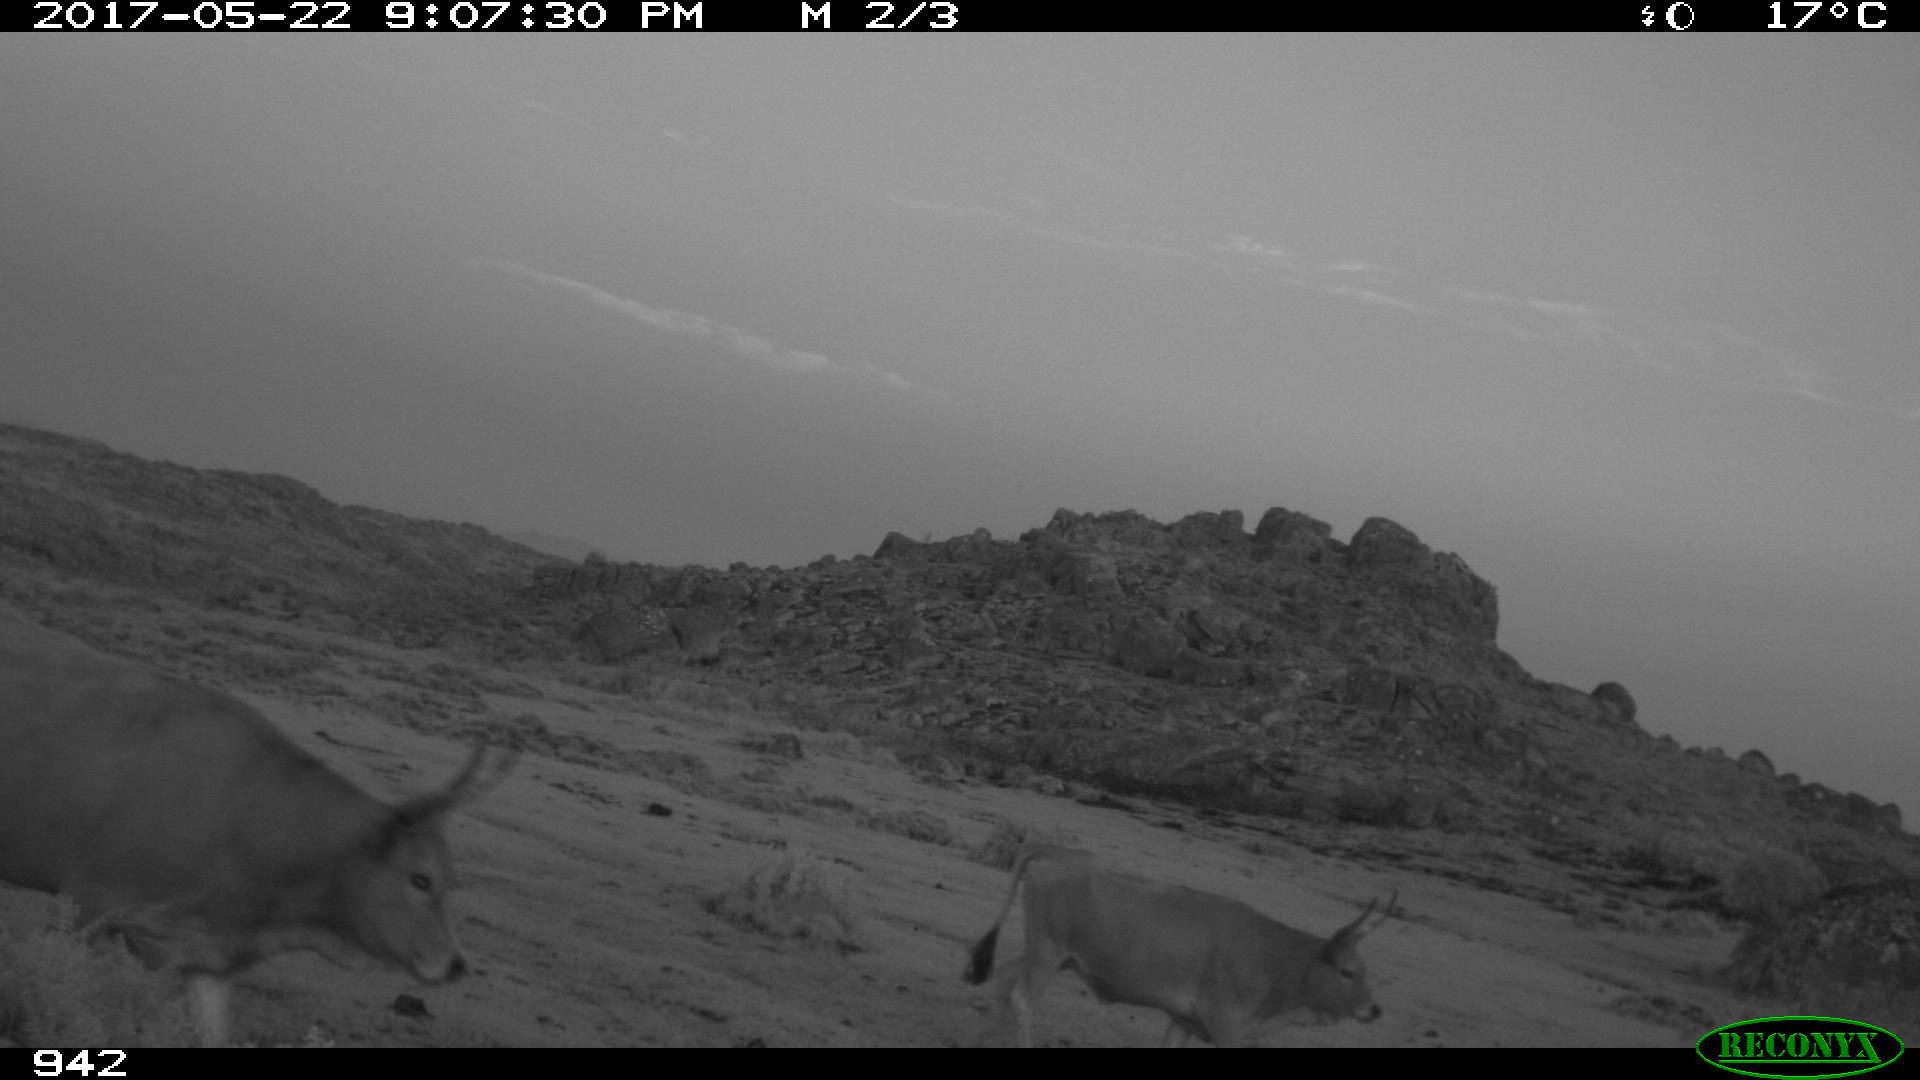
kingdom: Animalia
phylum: Chordata
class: Mammalia
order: Artiodactyla
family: Bovidae
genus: Bos
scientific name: Bos taurus
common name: Domesticated cattle
